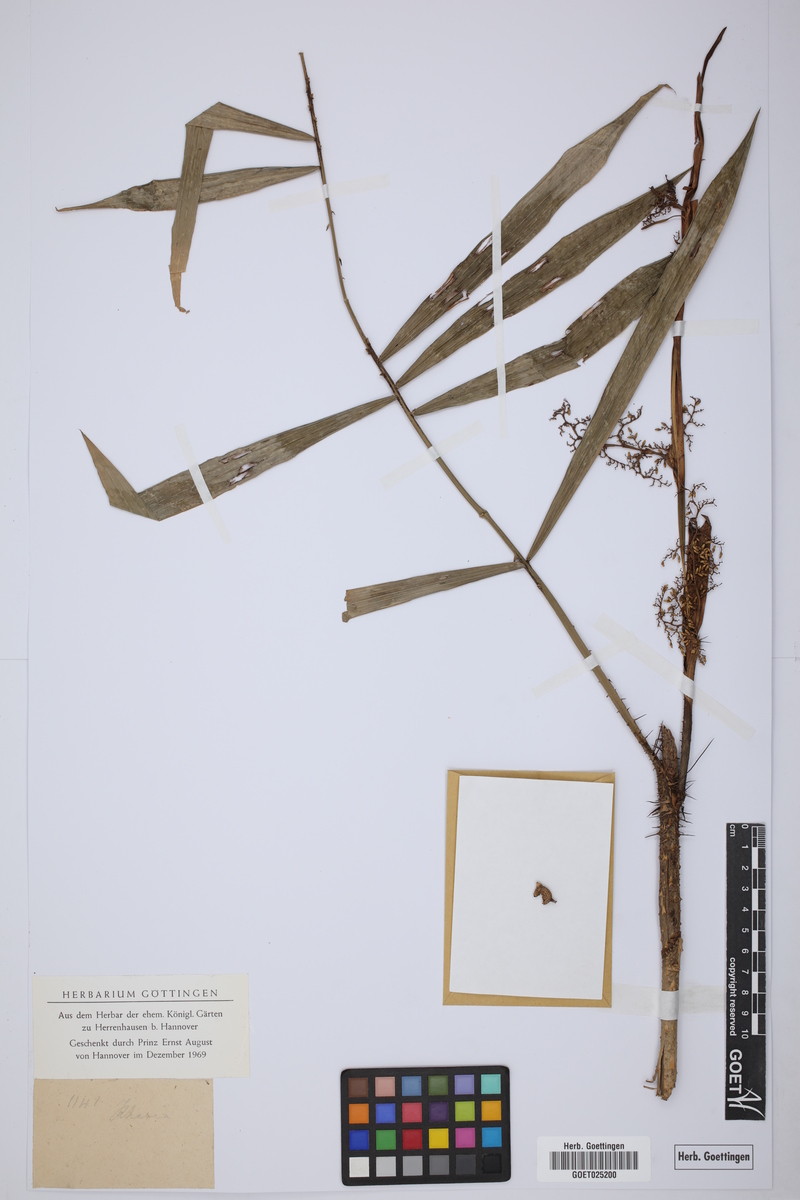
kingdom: Plantae
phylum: Tracheophyta
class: Liliopsida
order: Arecales
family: Arecaceae
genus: Calamus
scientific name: Calamus
